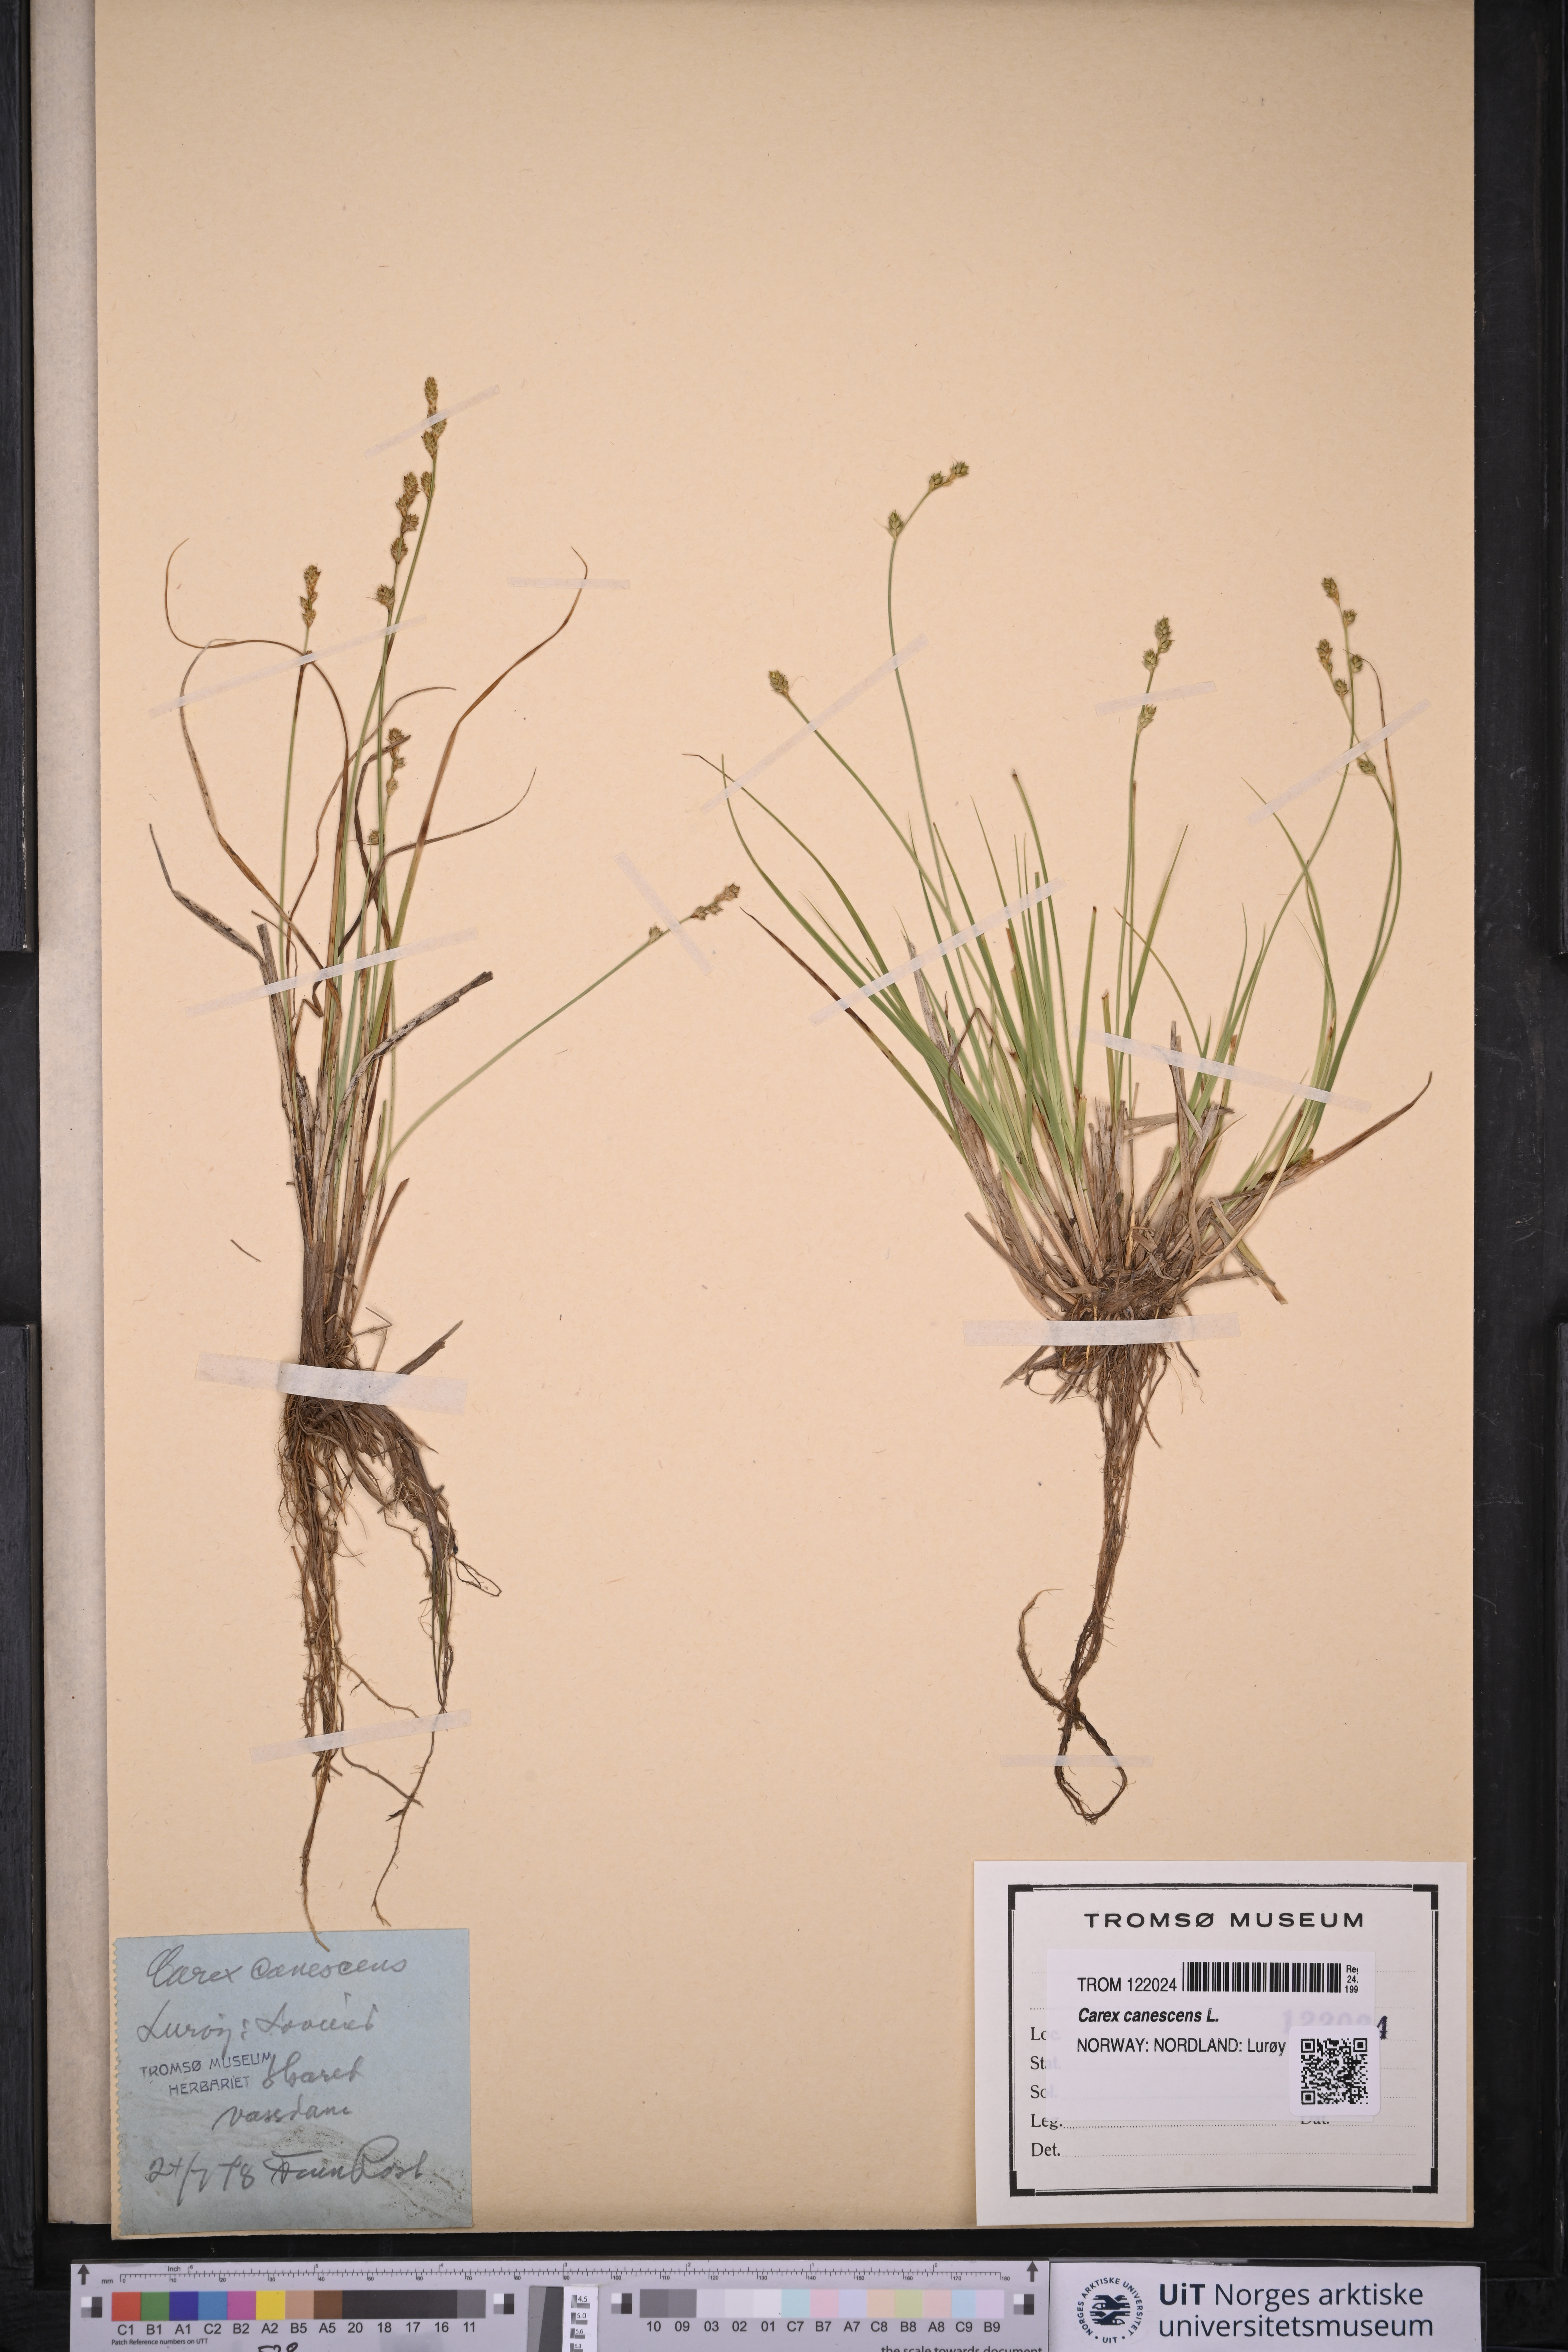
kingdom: Plantae
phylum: Tracheophyta
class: Liliopsida
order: Poales
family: Cyperaceae
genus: Carex
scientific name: Carex canescens
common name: White sedge
